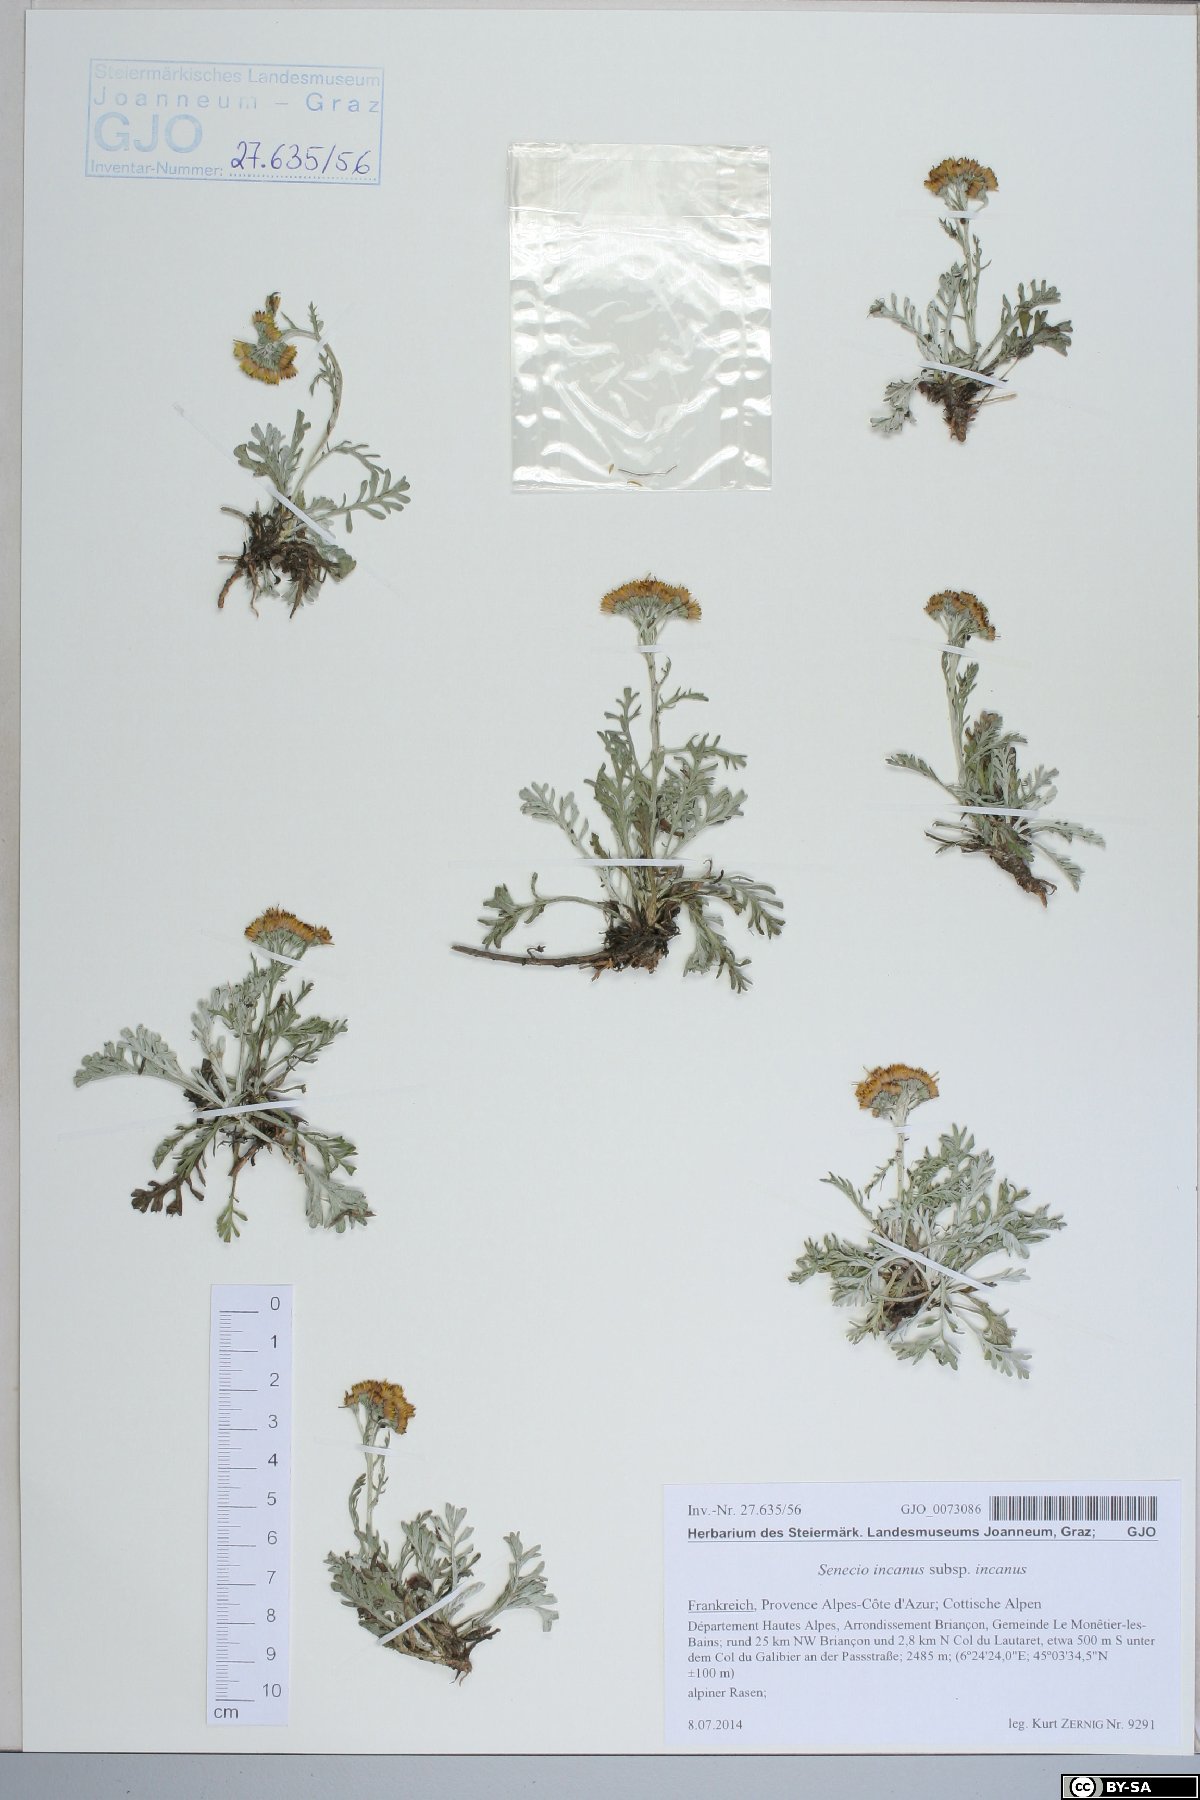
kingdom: Plantae
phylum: Tracheophyta
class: Magnoliopsida
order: Asterales
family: Asteraceae
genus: Jacobaea
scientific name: Jacobaea incana
